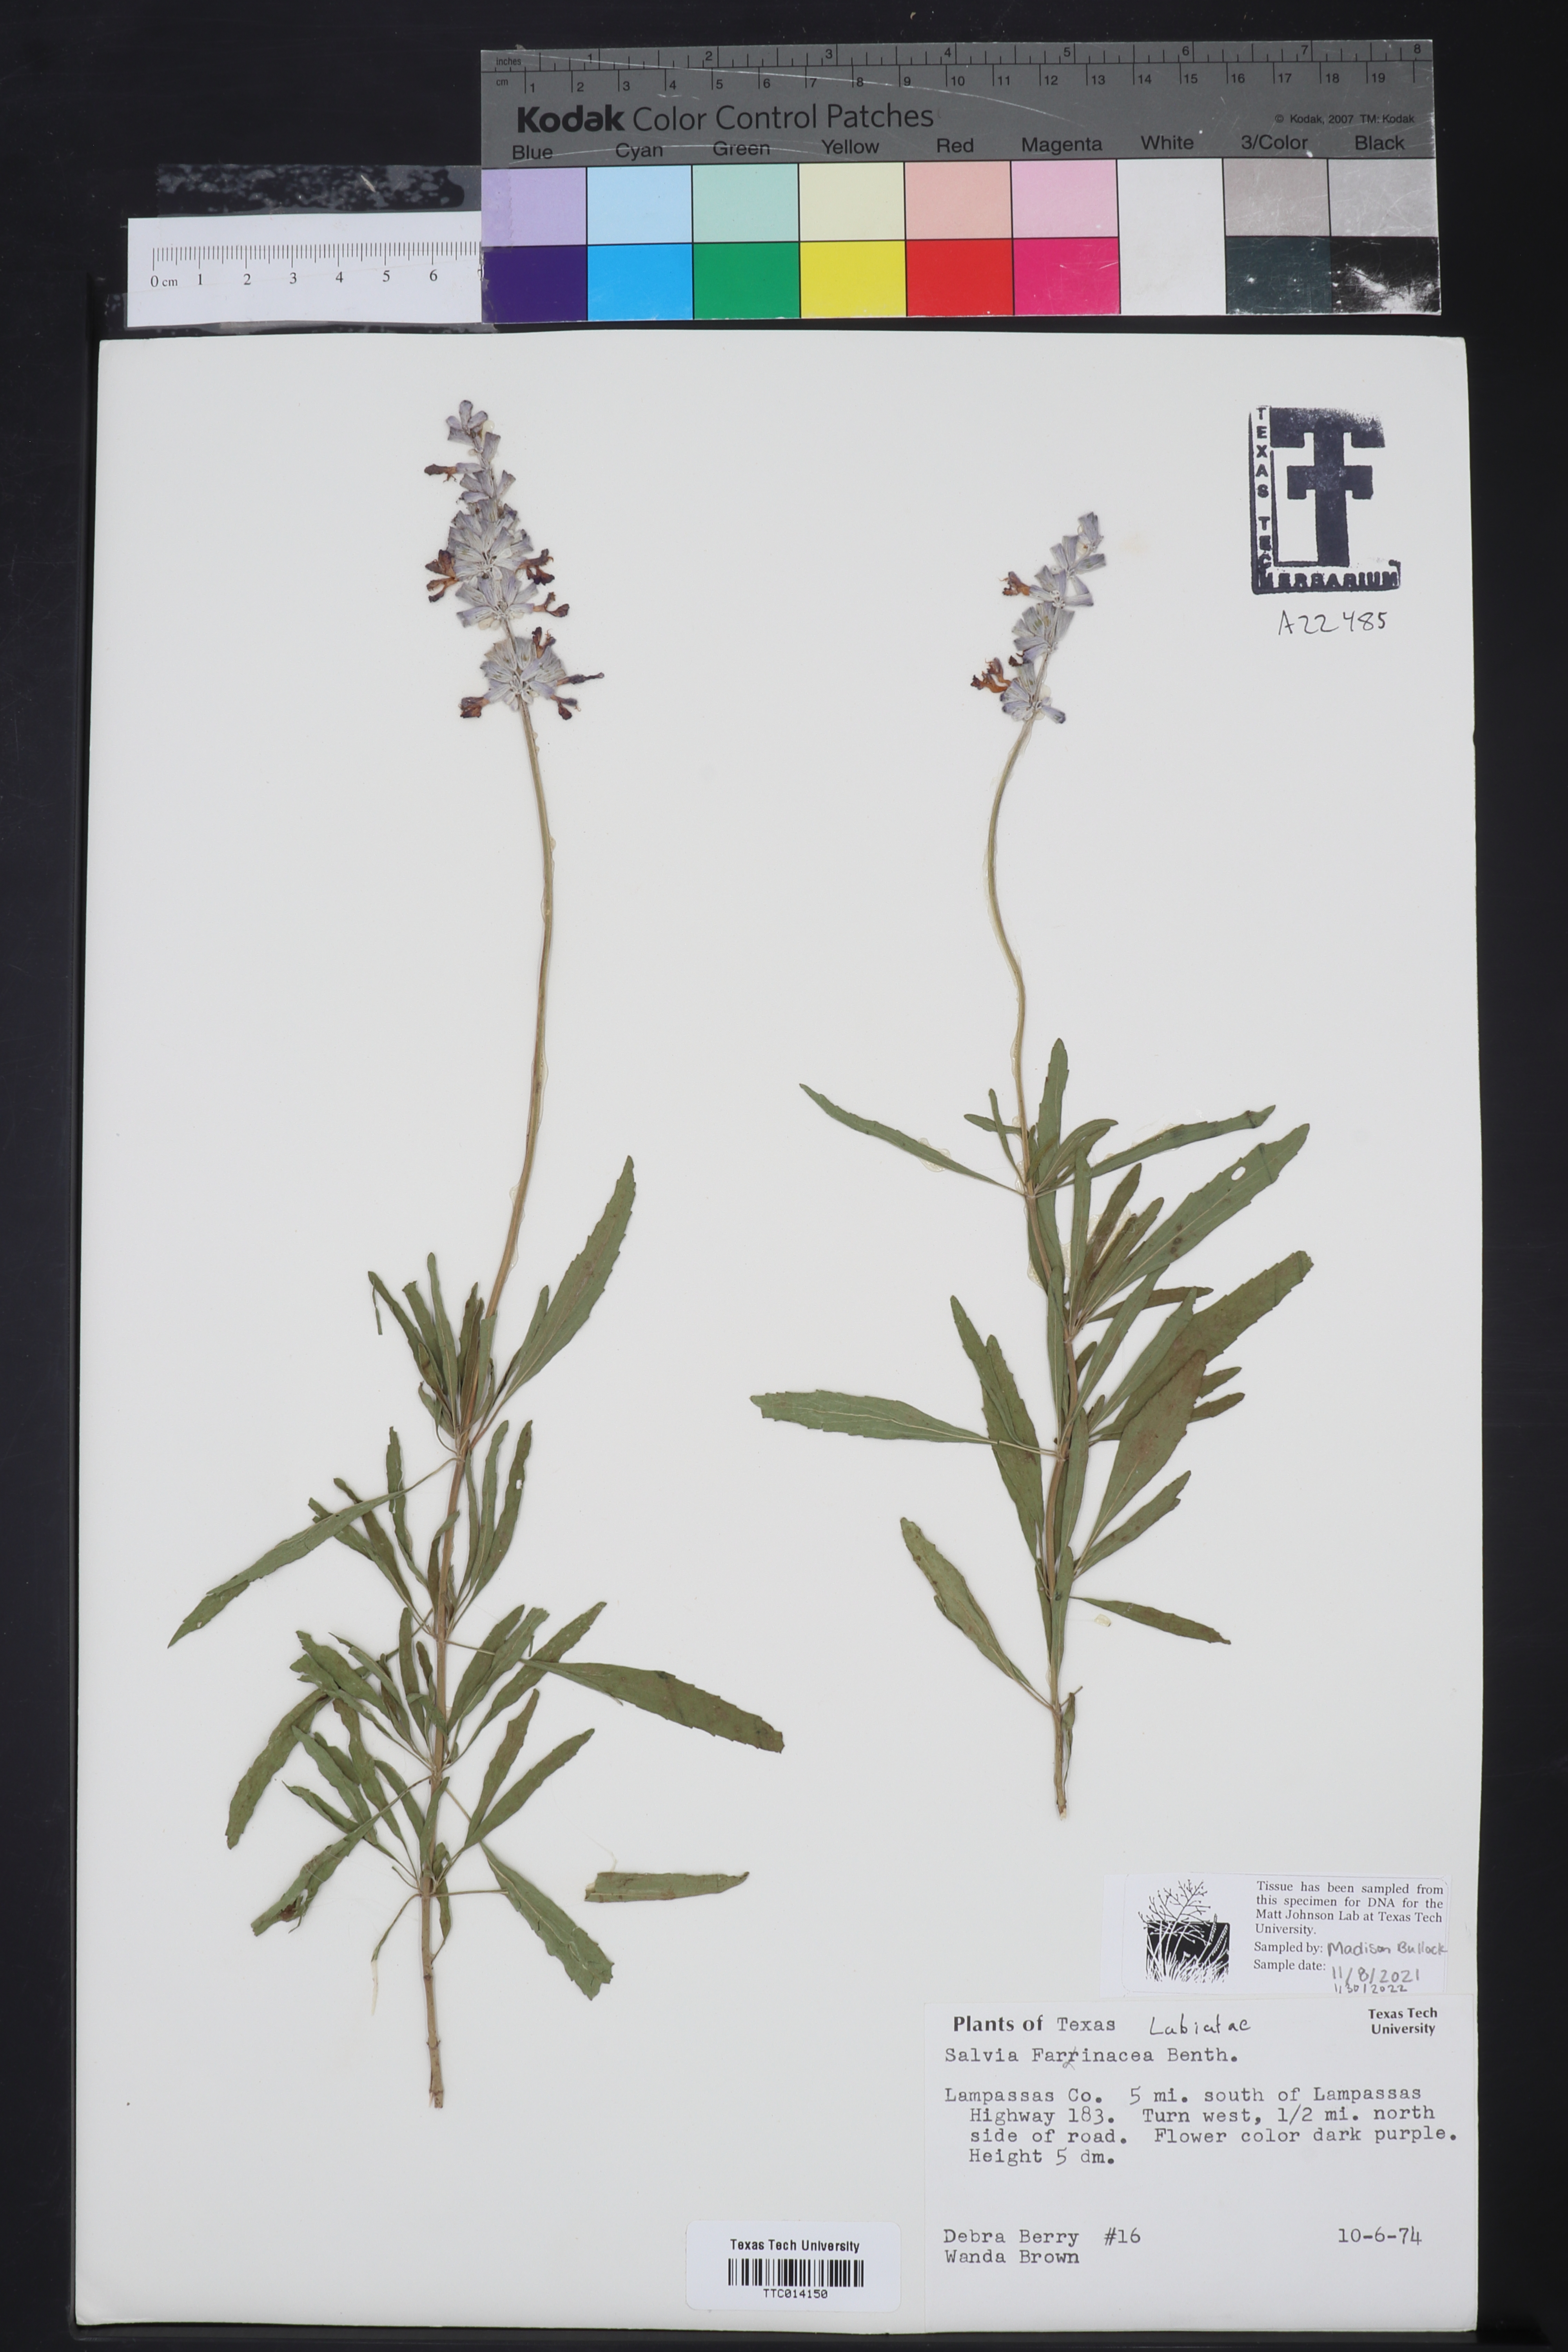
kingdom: Plantae
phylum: Tracheophyta
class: Magnoliopsida
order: Lamiales
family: Lamiaceae
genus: Salvia
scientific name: Salvia farinacea
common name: Mealy sage
